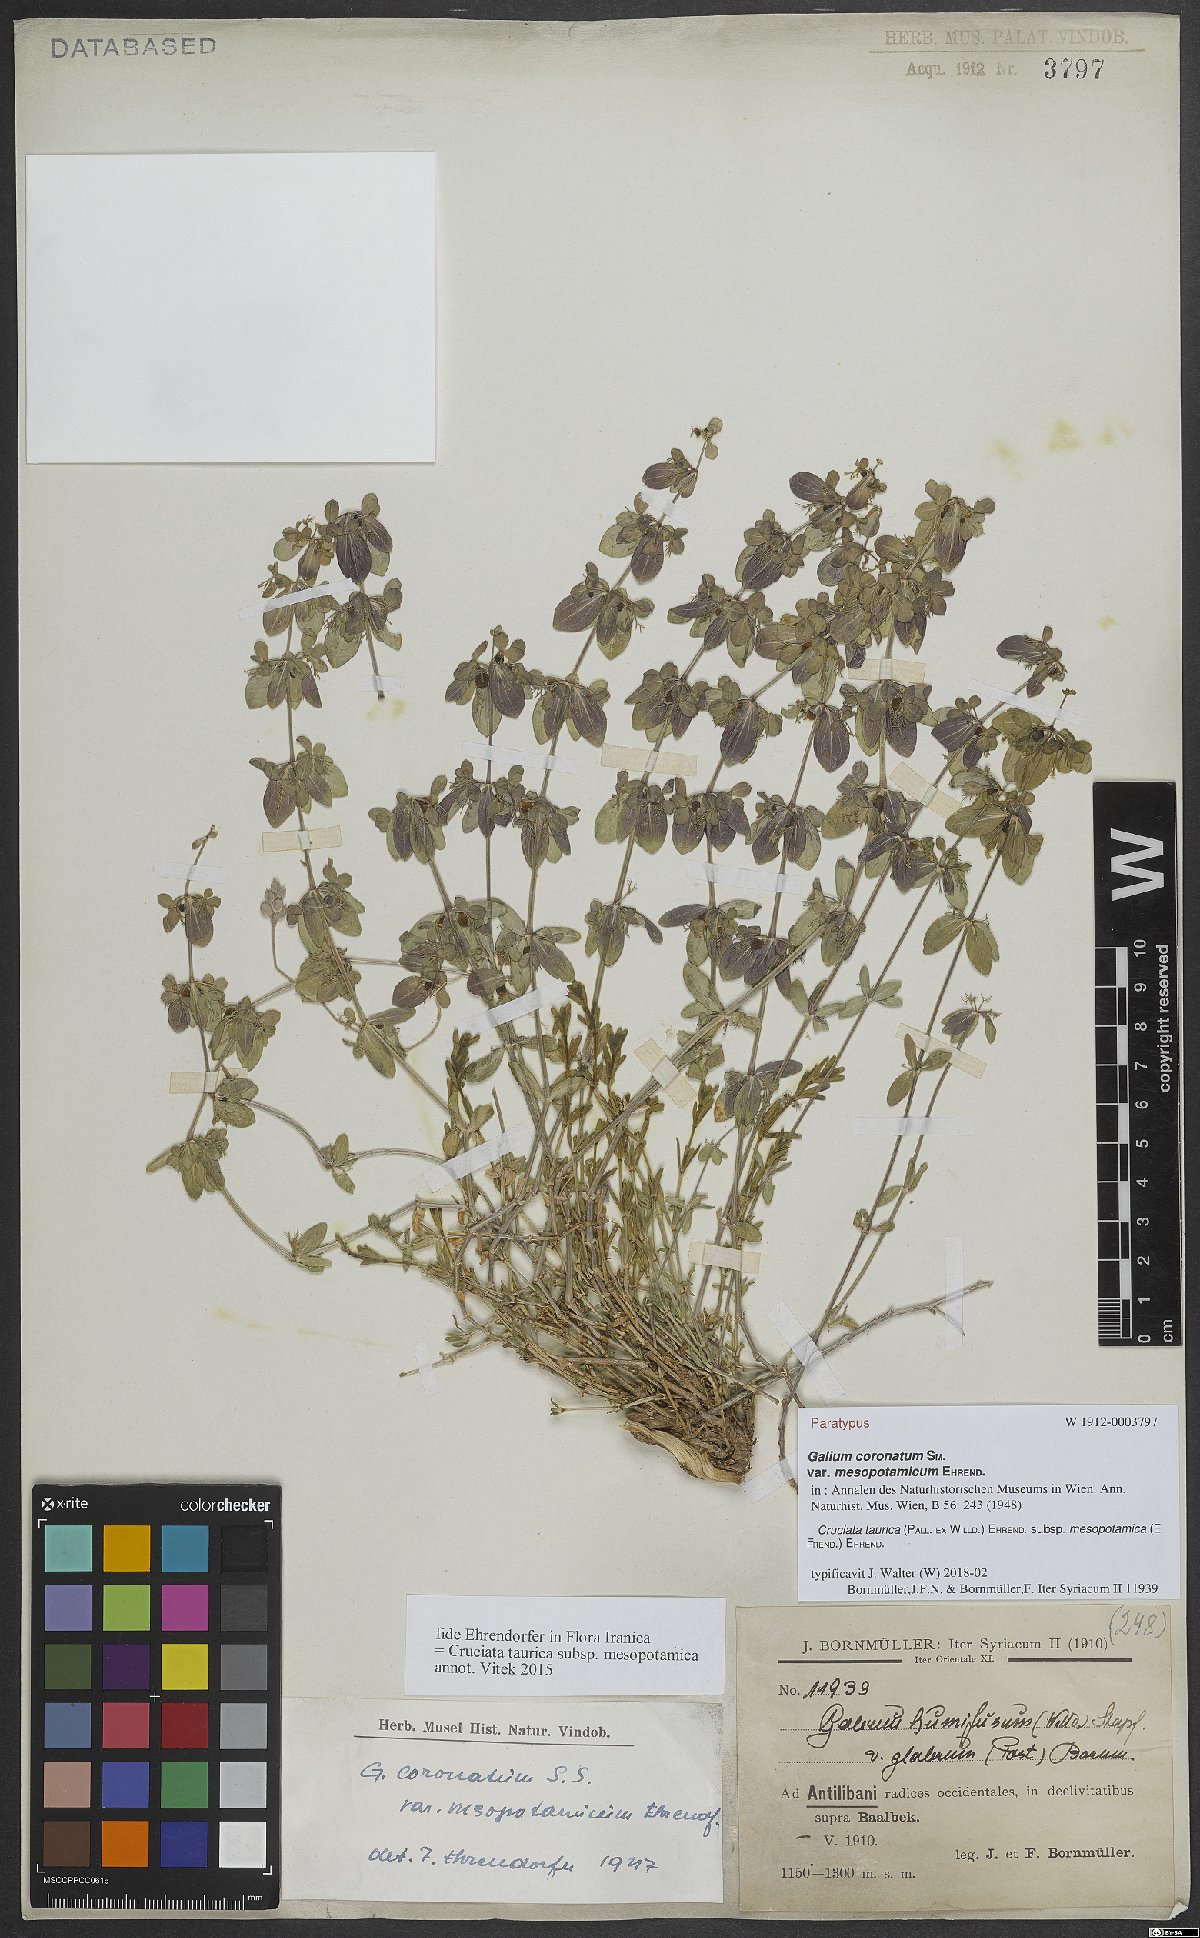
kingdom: Plantae
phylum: Tracheophyta
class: Magnoliopsida
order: Gentianales
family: Rubiaceae
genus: Cruciata
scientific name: Cruciata taurica
